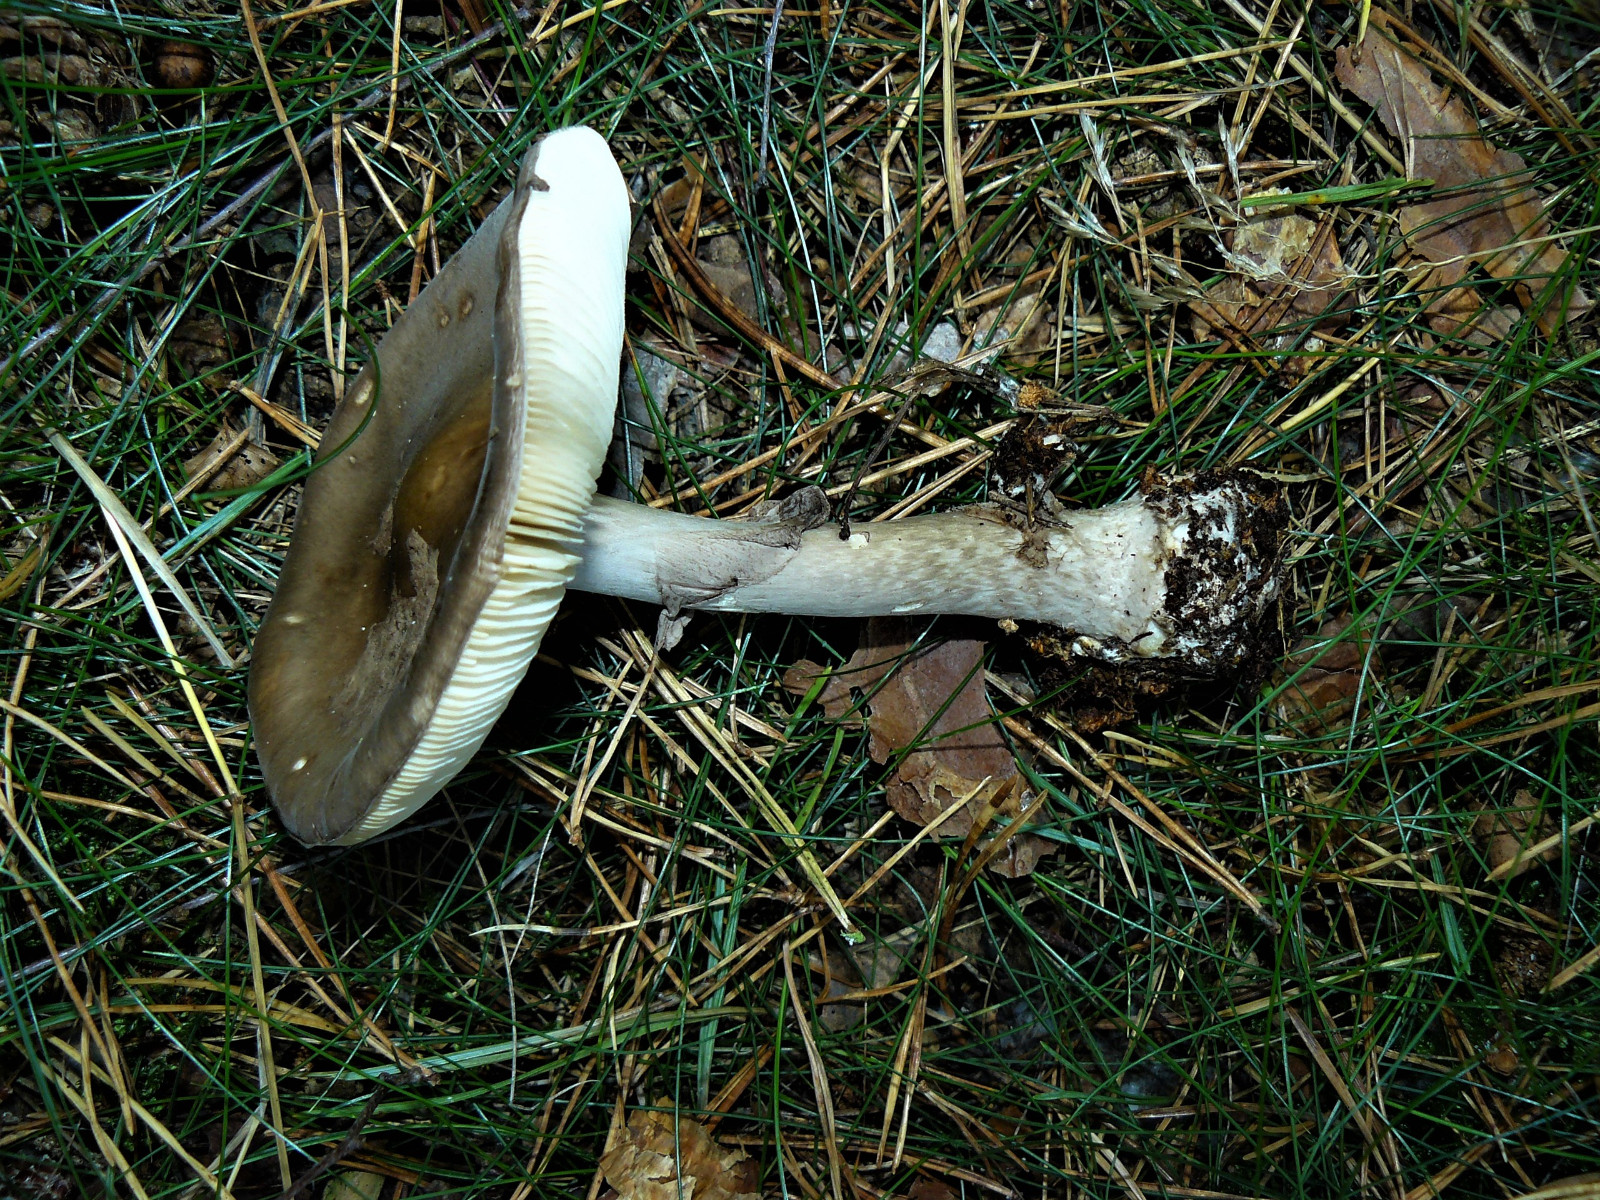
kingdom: Fungi
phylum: Basidiomycota
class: Agaricomycetes
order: Agaricales
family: Amanitaceae
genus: Amanita
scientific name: Amanita porphyria
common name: porfyr-fluesvamp
